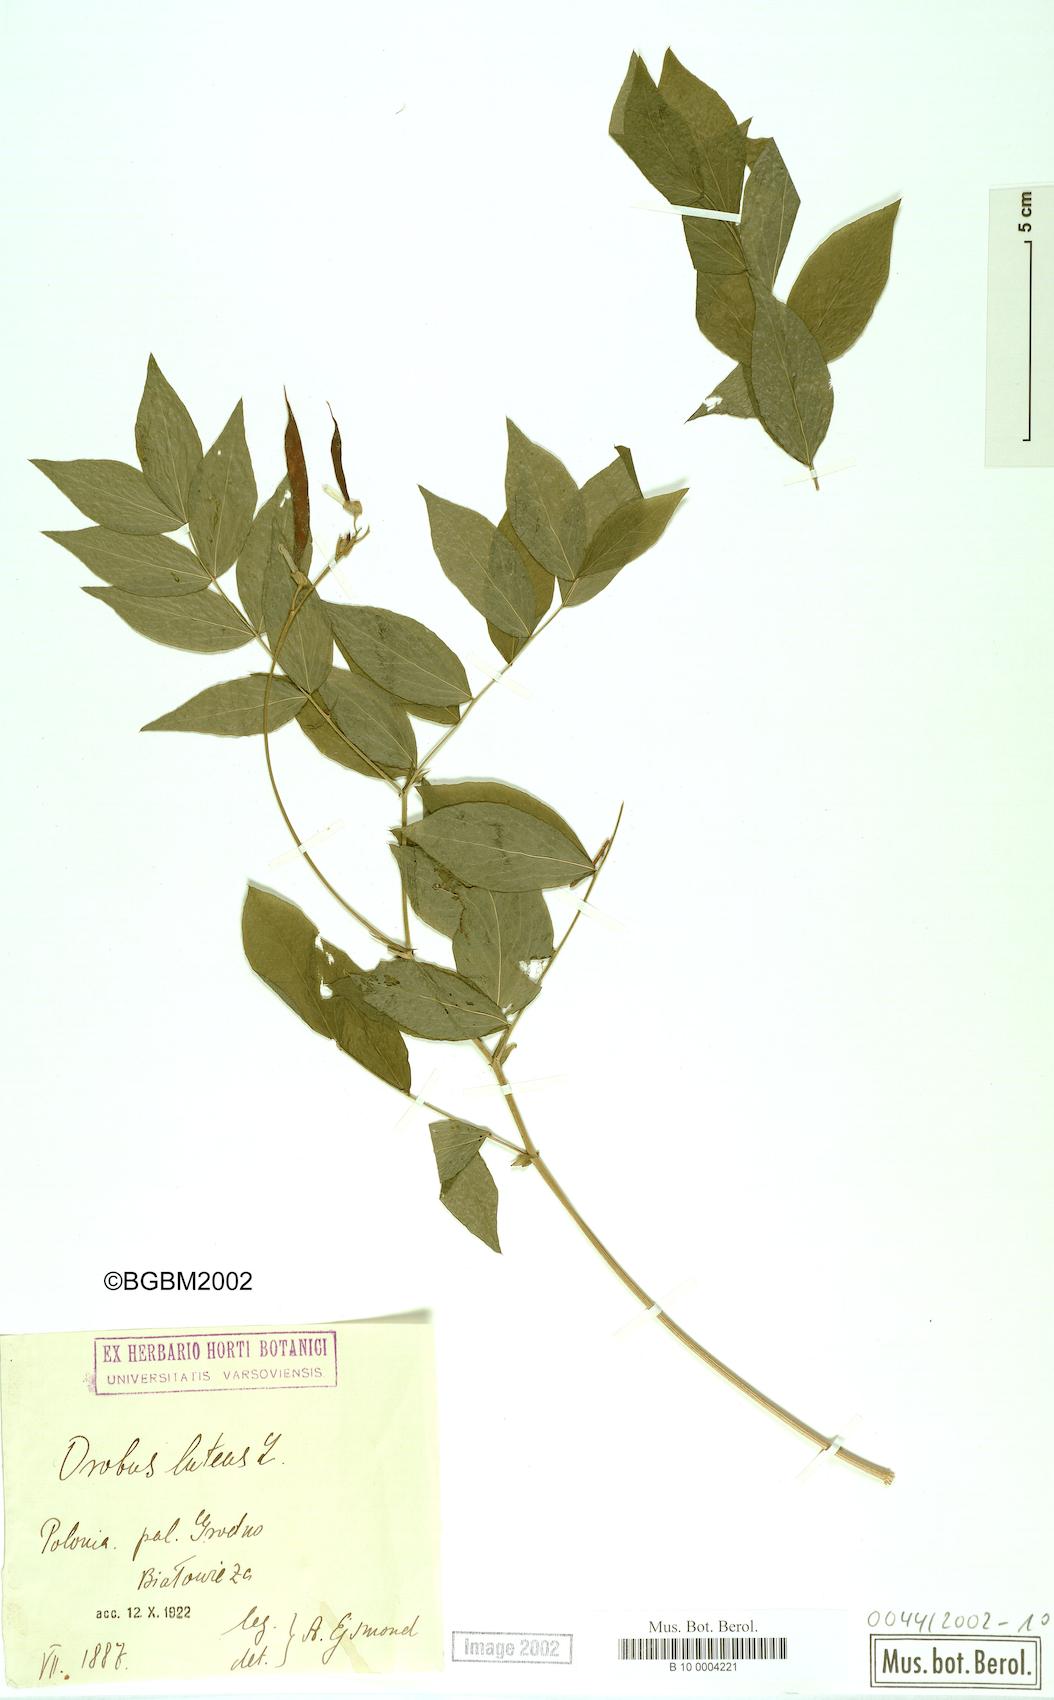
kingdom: Plantae
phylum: Tracheophyta
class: Magnoliopsida
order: Fabales
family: Fabaceae
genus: Lathyrus
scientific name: Lathyrus gmelinii
